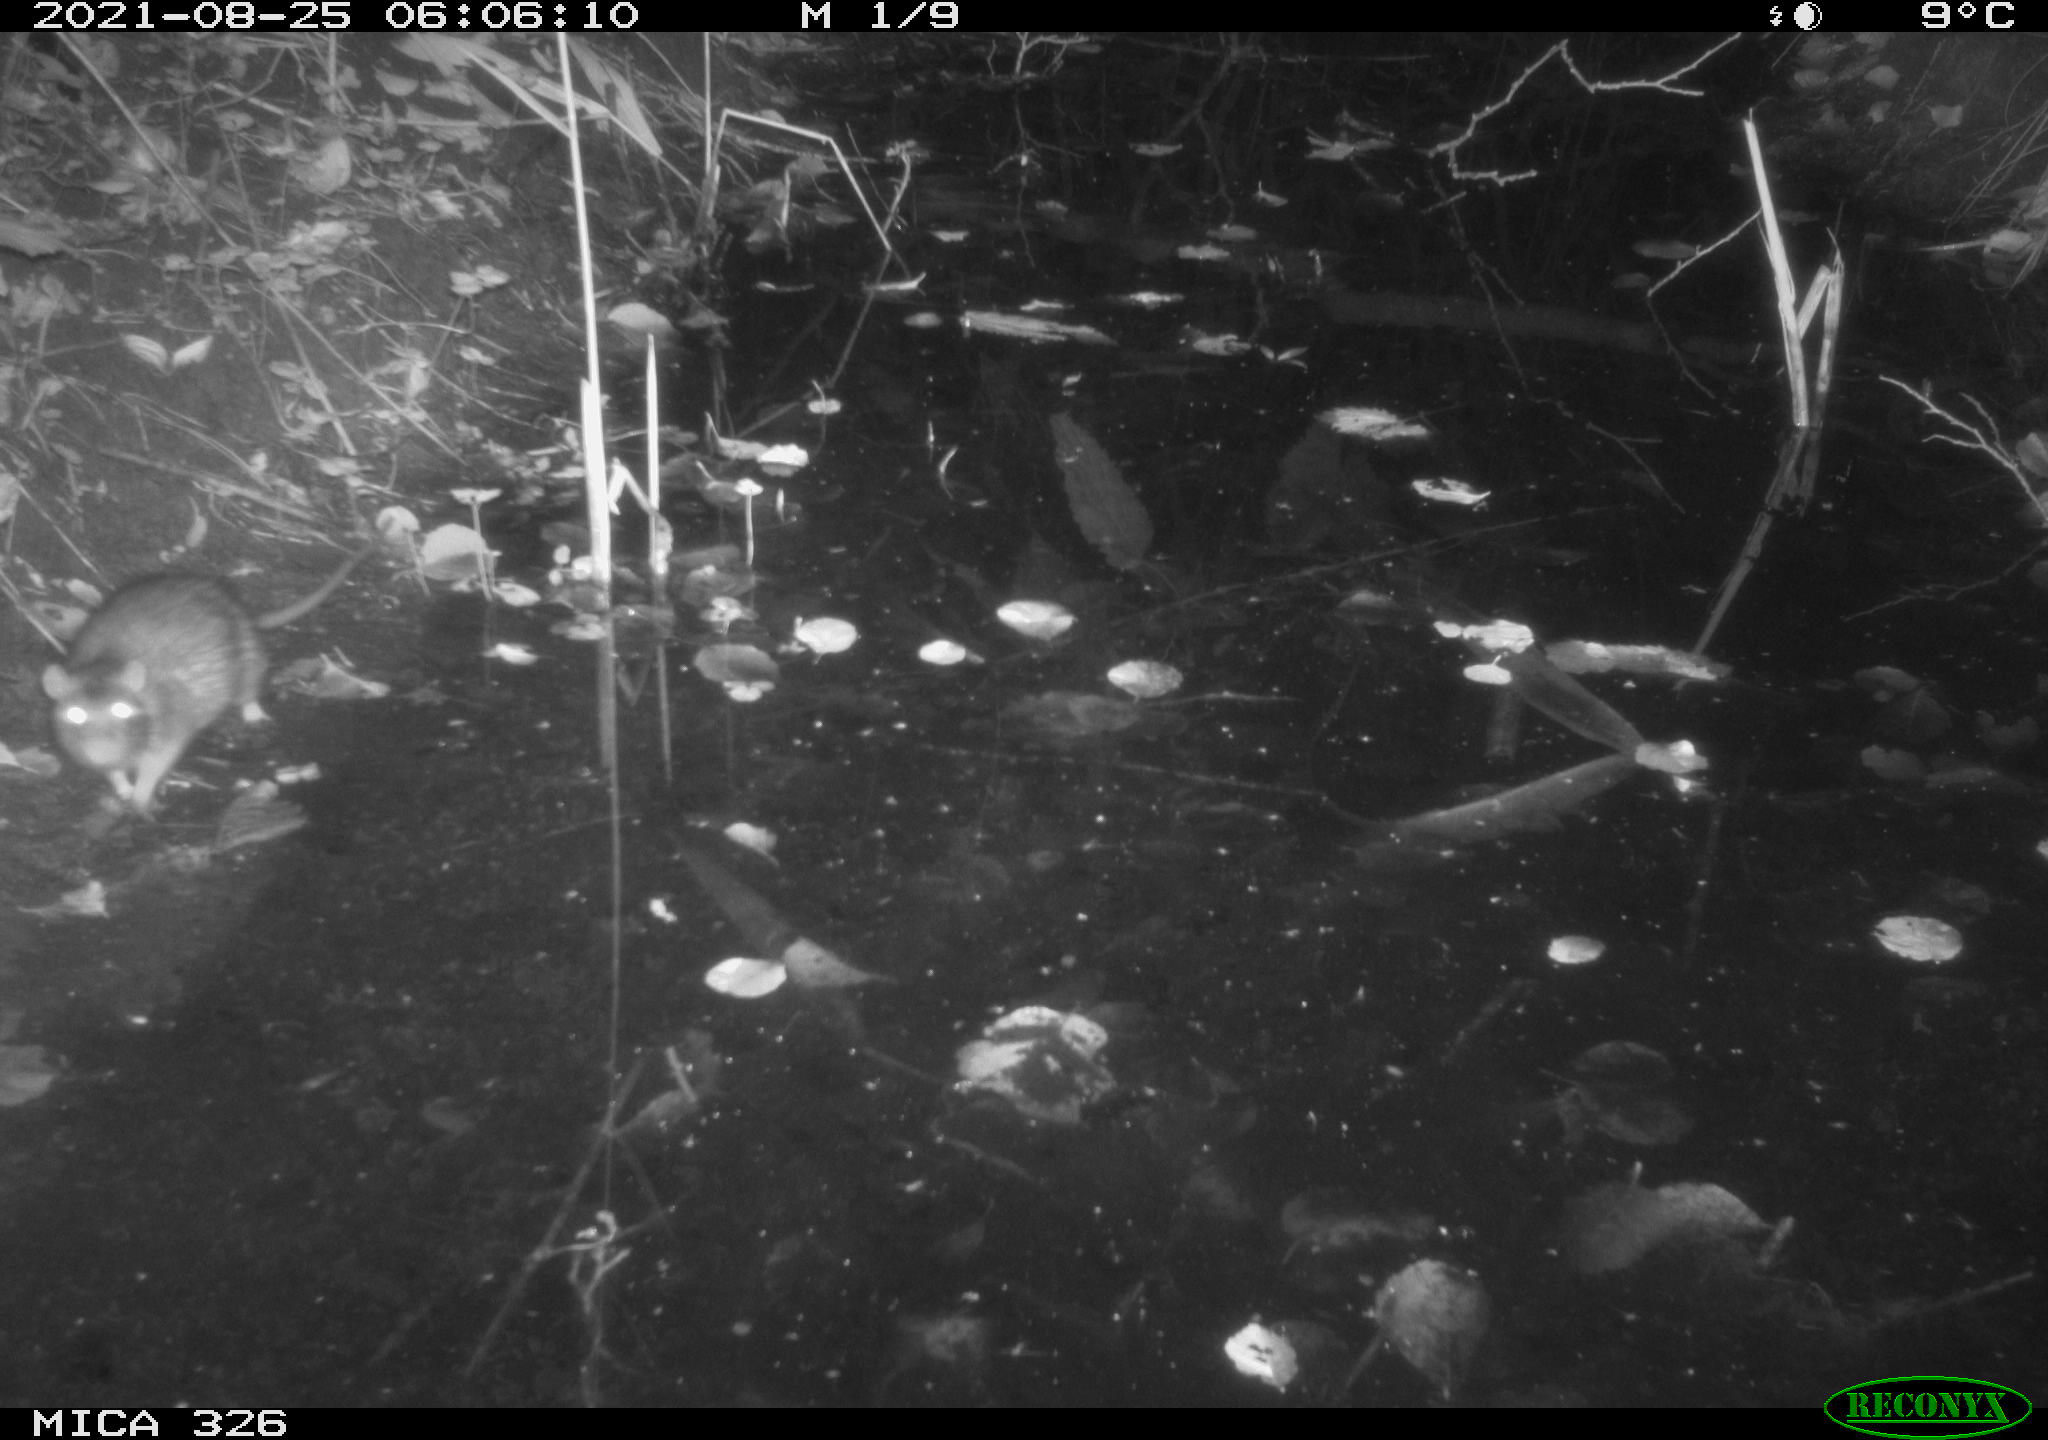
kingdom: Animalia
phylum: Chordata
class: Mammalia
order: Rodentia
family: Muridae
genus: Rattus
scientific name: Rattus norvegicus
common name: Brown rat
